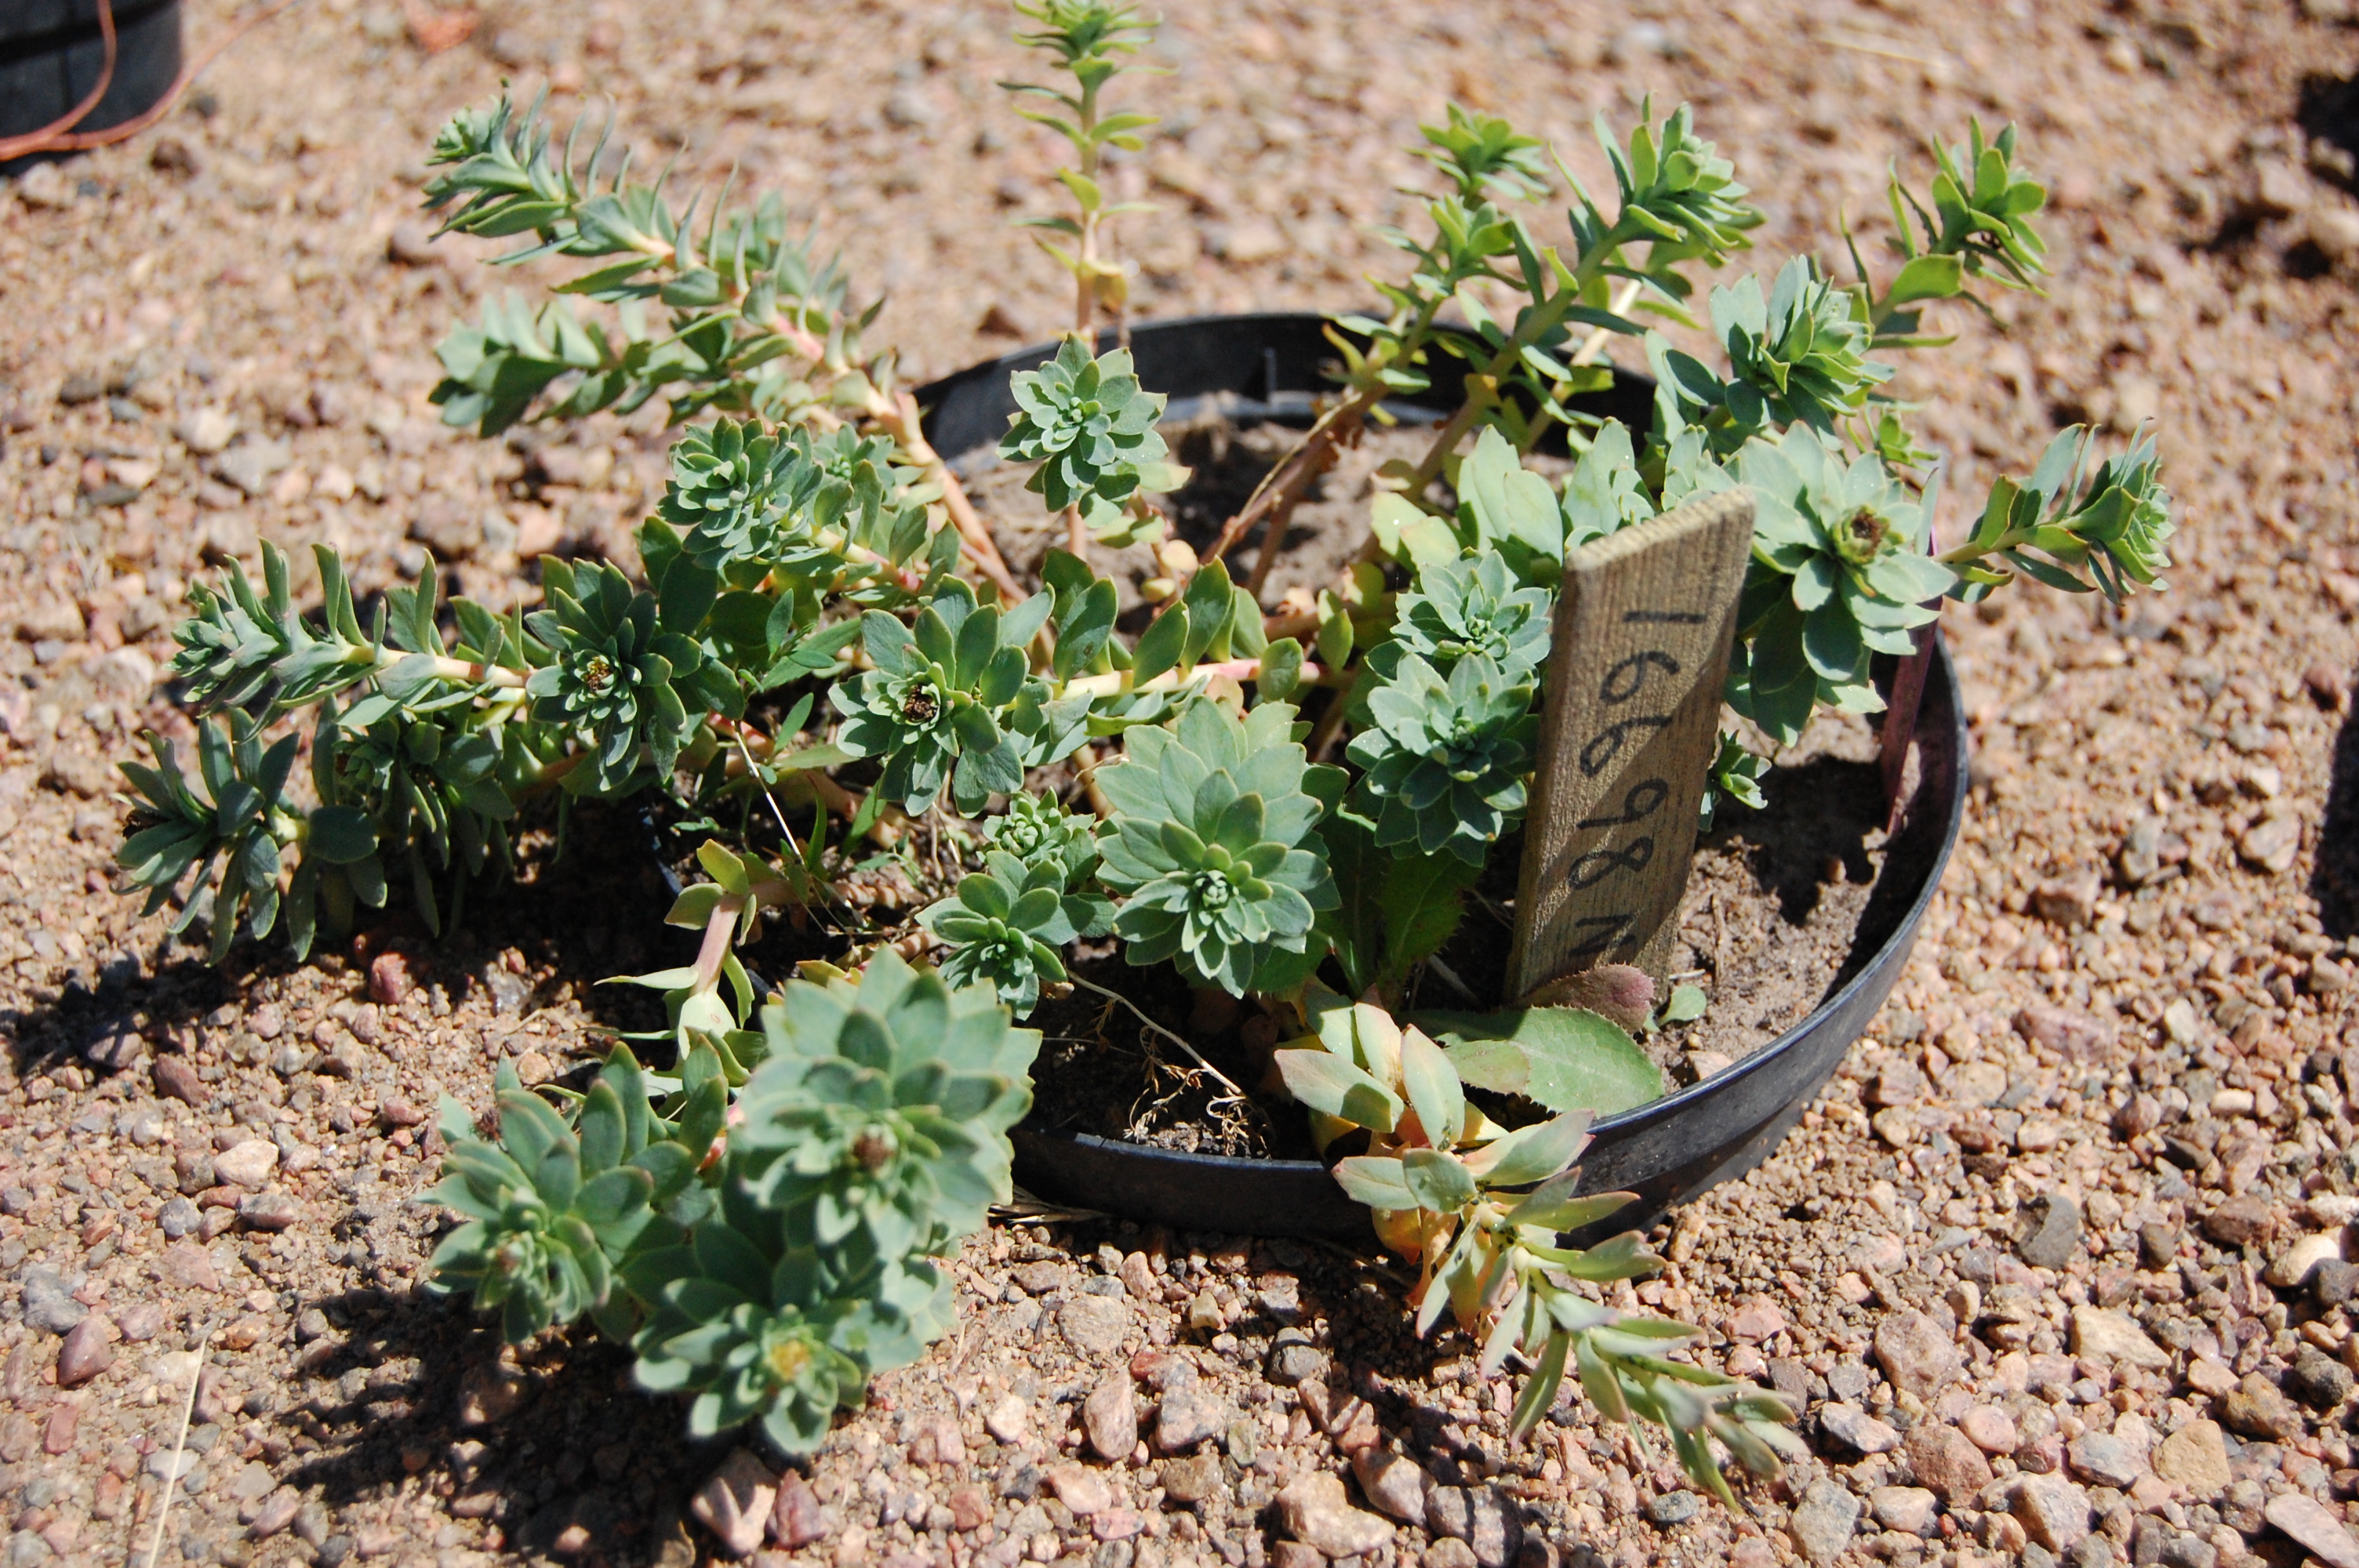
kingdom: Plantae
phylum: Tracheophyta
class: Magnoliopsida
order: Saxifragales
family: Crassulaceae
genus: Rhodiola
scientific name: Rhodiola rosea
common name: Roseroot
